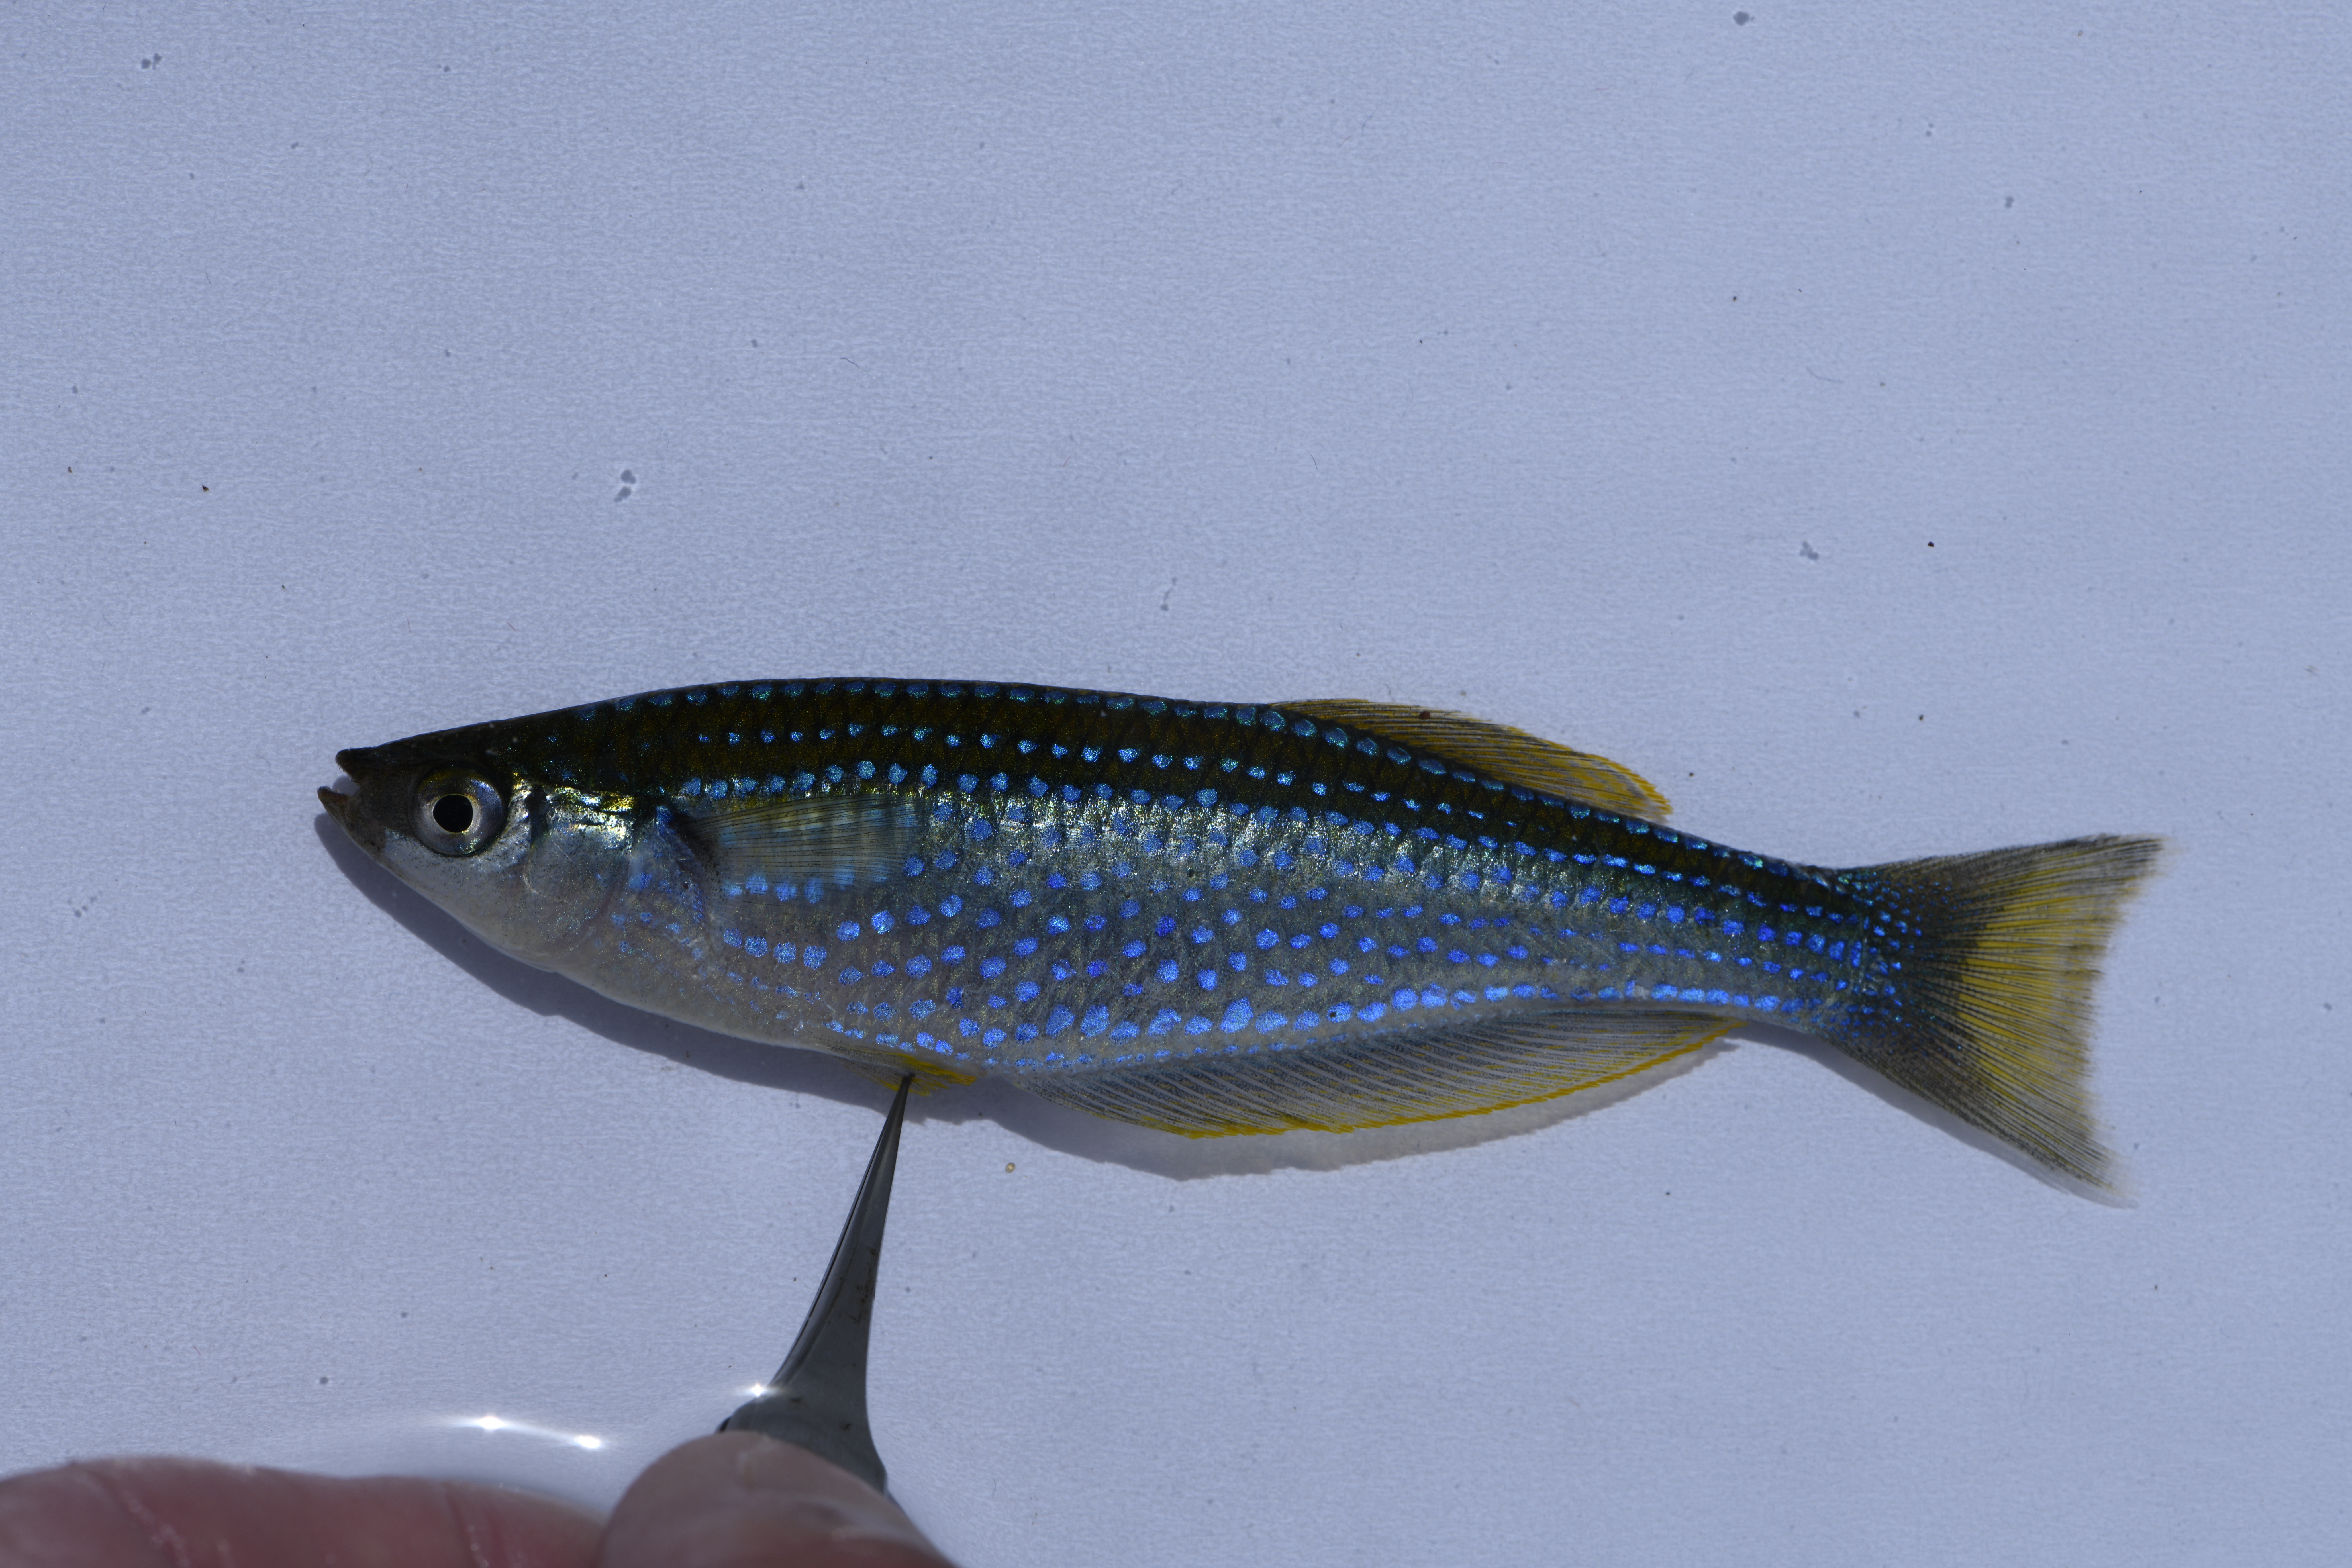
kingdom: Animalia
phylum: Chordata
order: Cyprinodontiformes
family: Poeciliidae
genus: Lamprichthys
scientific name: Lamprichthys tanganicanus
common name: Tanganyika killifish
